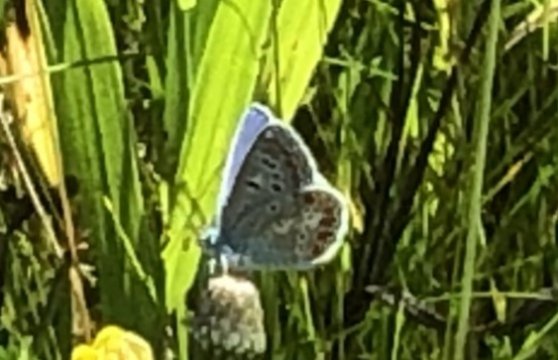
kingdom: Animalia
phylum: Arthropoda
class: Insecta
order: Lepidoptera
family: Lycaenidae
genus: Polyommatus
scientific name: Polyommatus icarus
